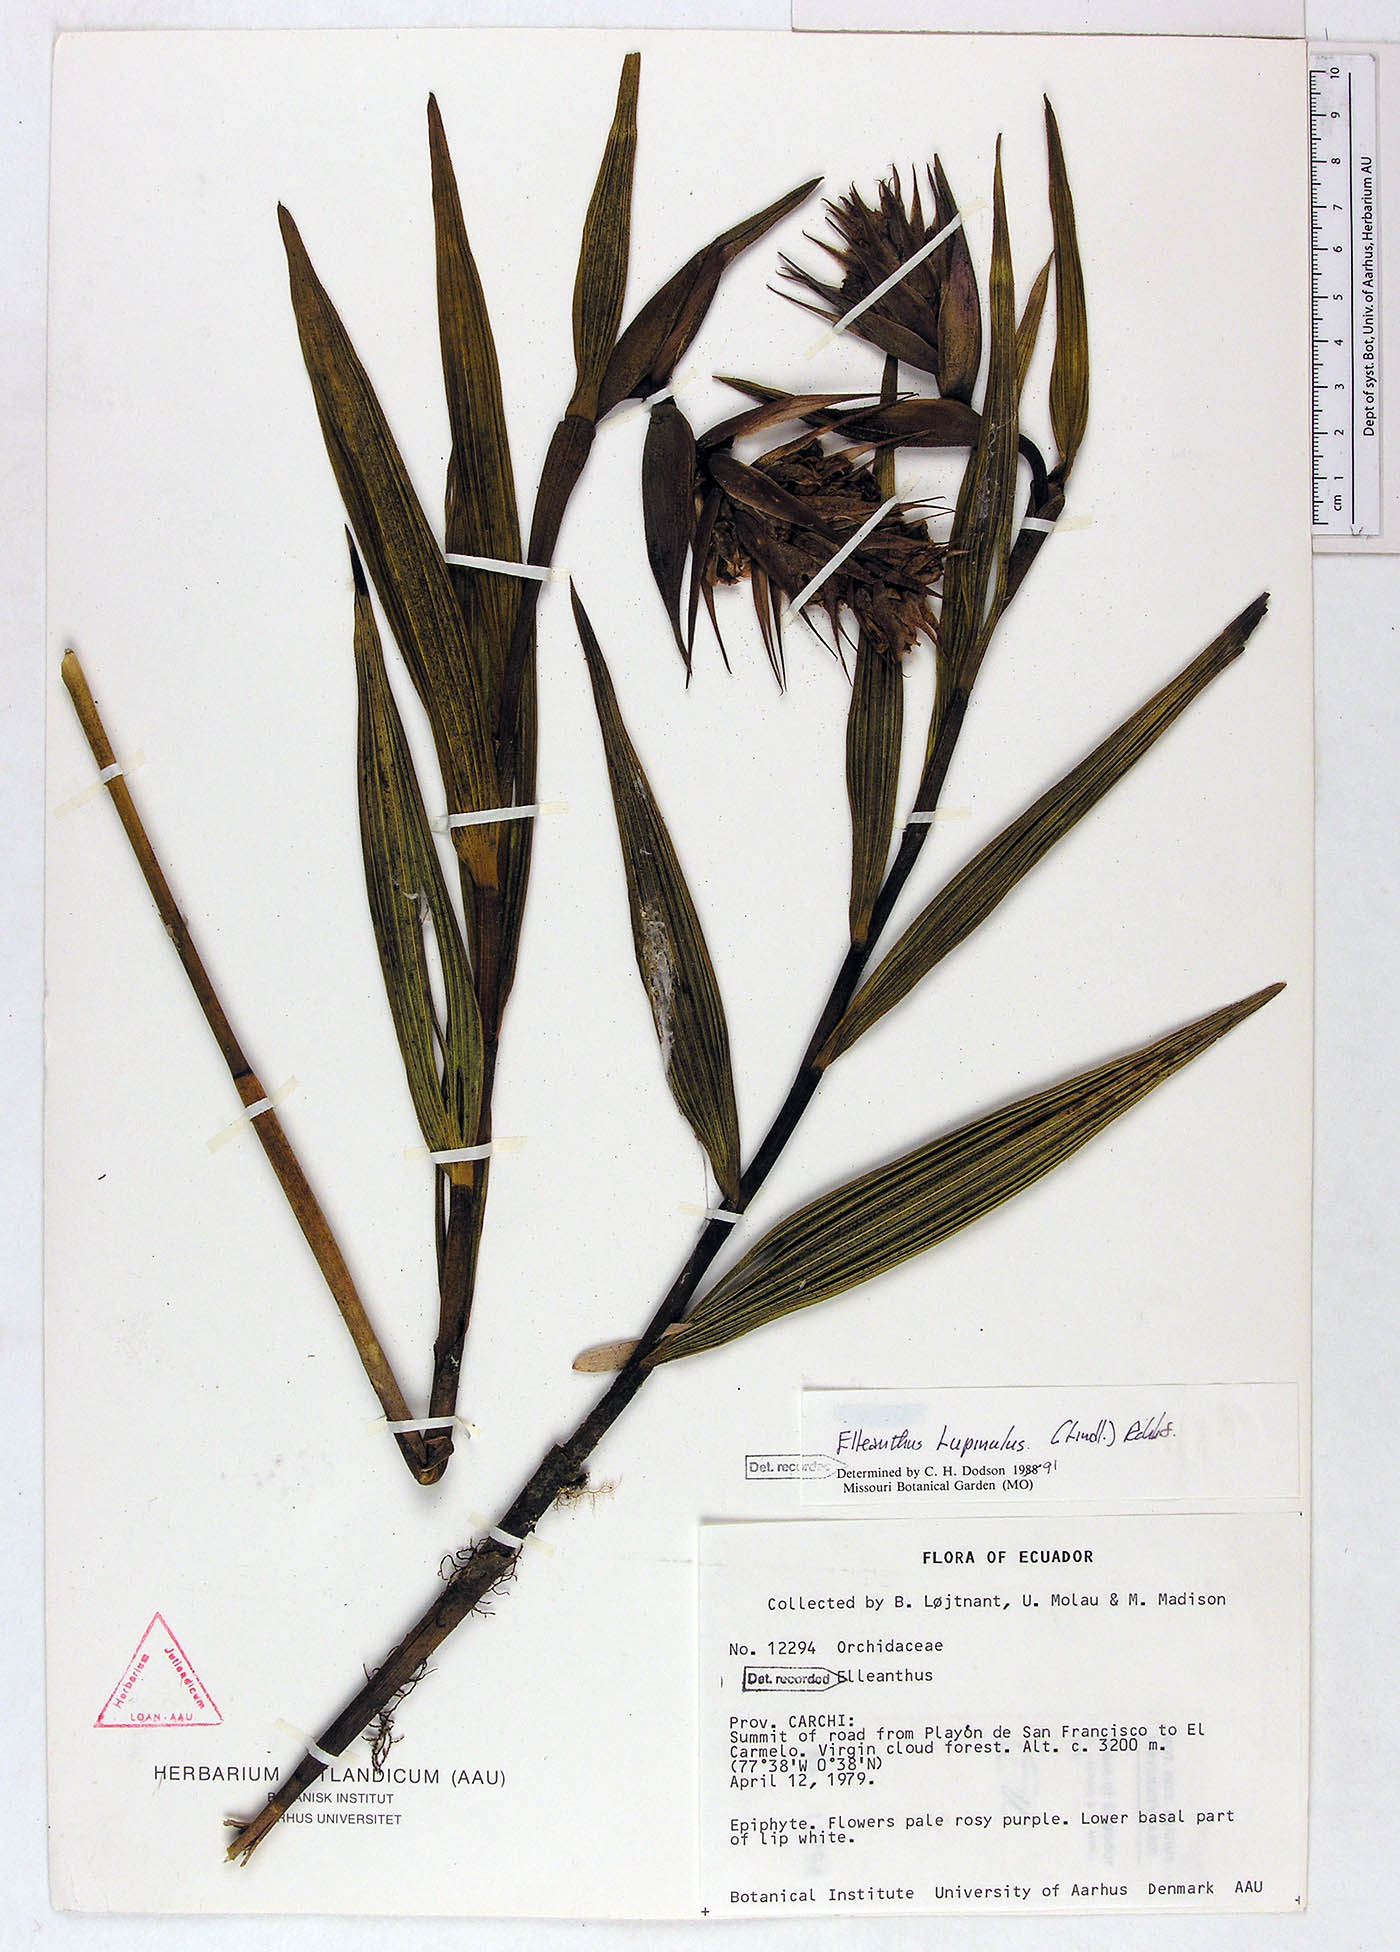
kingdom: Plantae
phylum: Tracheophyta
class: Liliopsida
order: Asparagales
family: Orchidaceae
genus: Elleanthus
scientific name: Elleanthus maculatus
